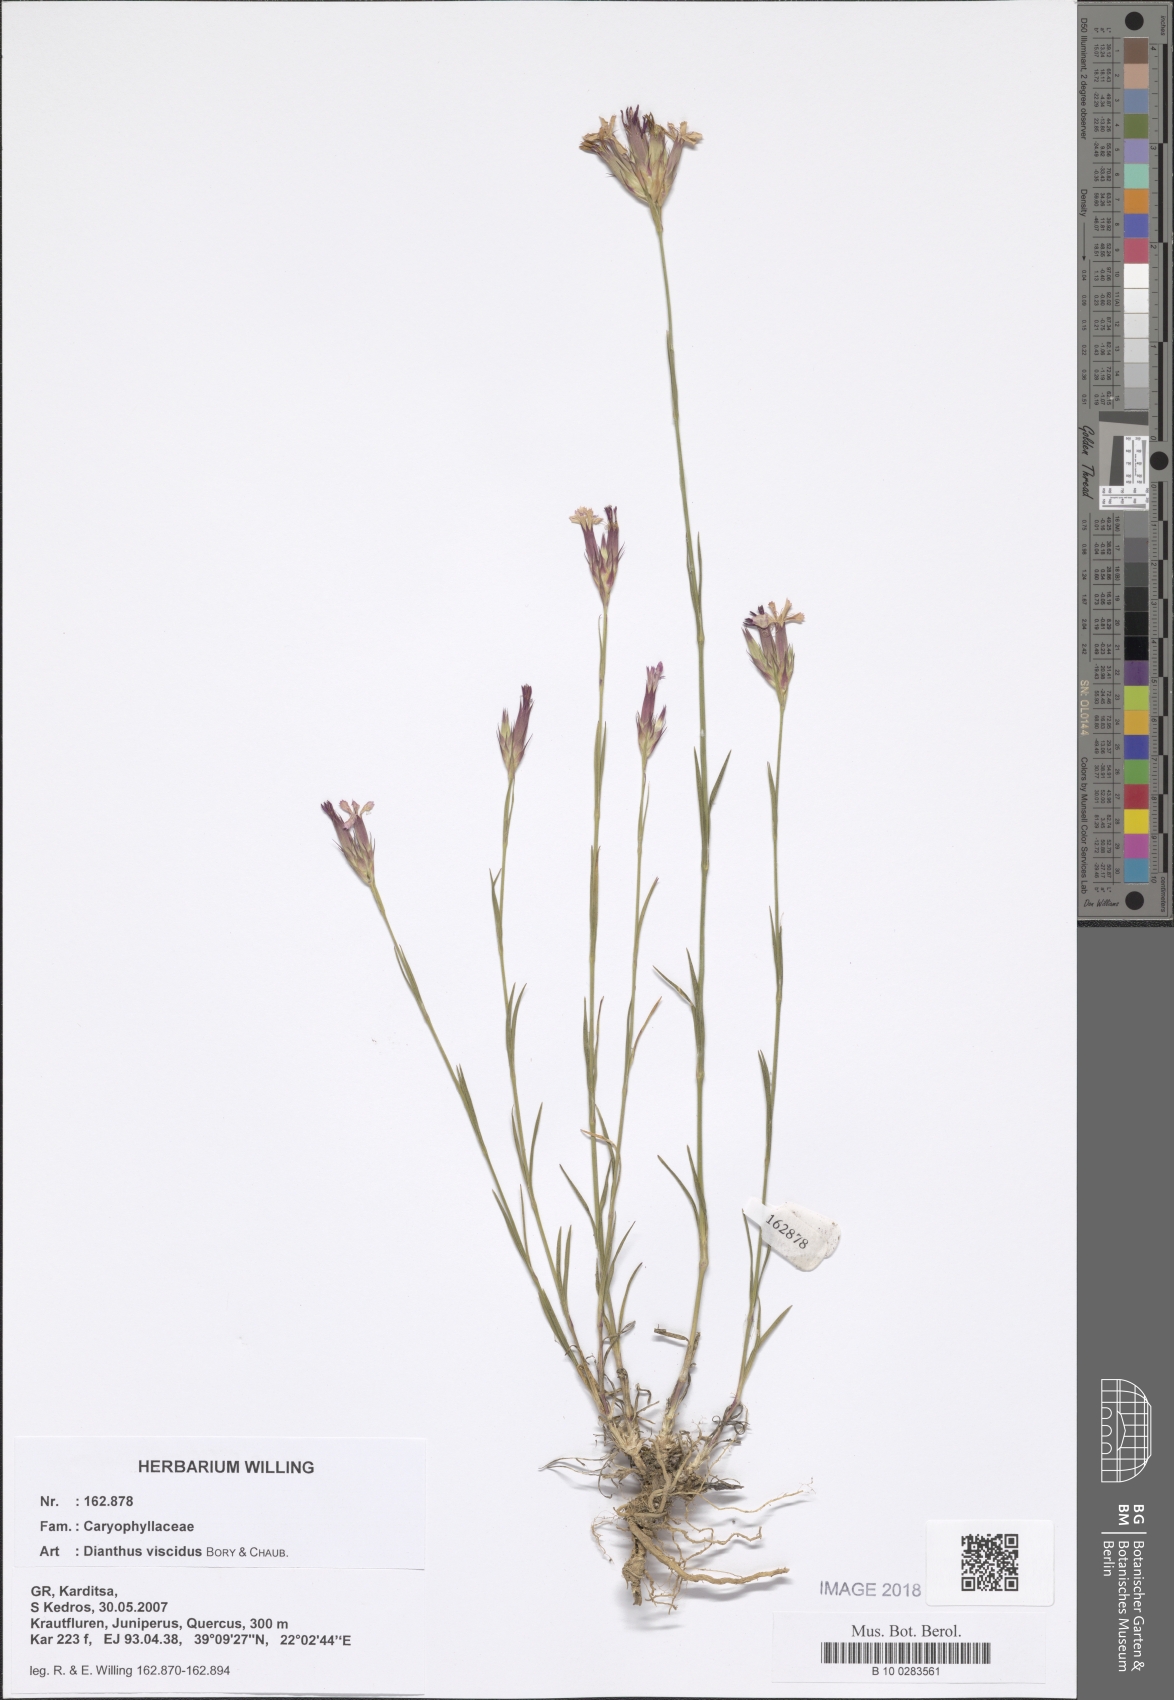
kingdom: Plantae
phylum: Tracheophyta
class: Magnoliopsida
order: Caryophyllales
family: Caryophyllaceae
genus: Dianthus
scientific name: Dianthus viscidus
